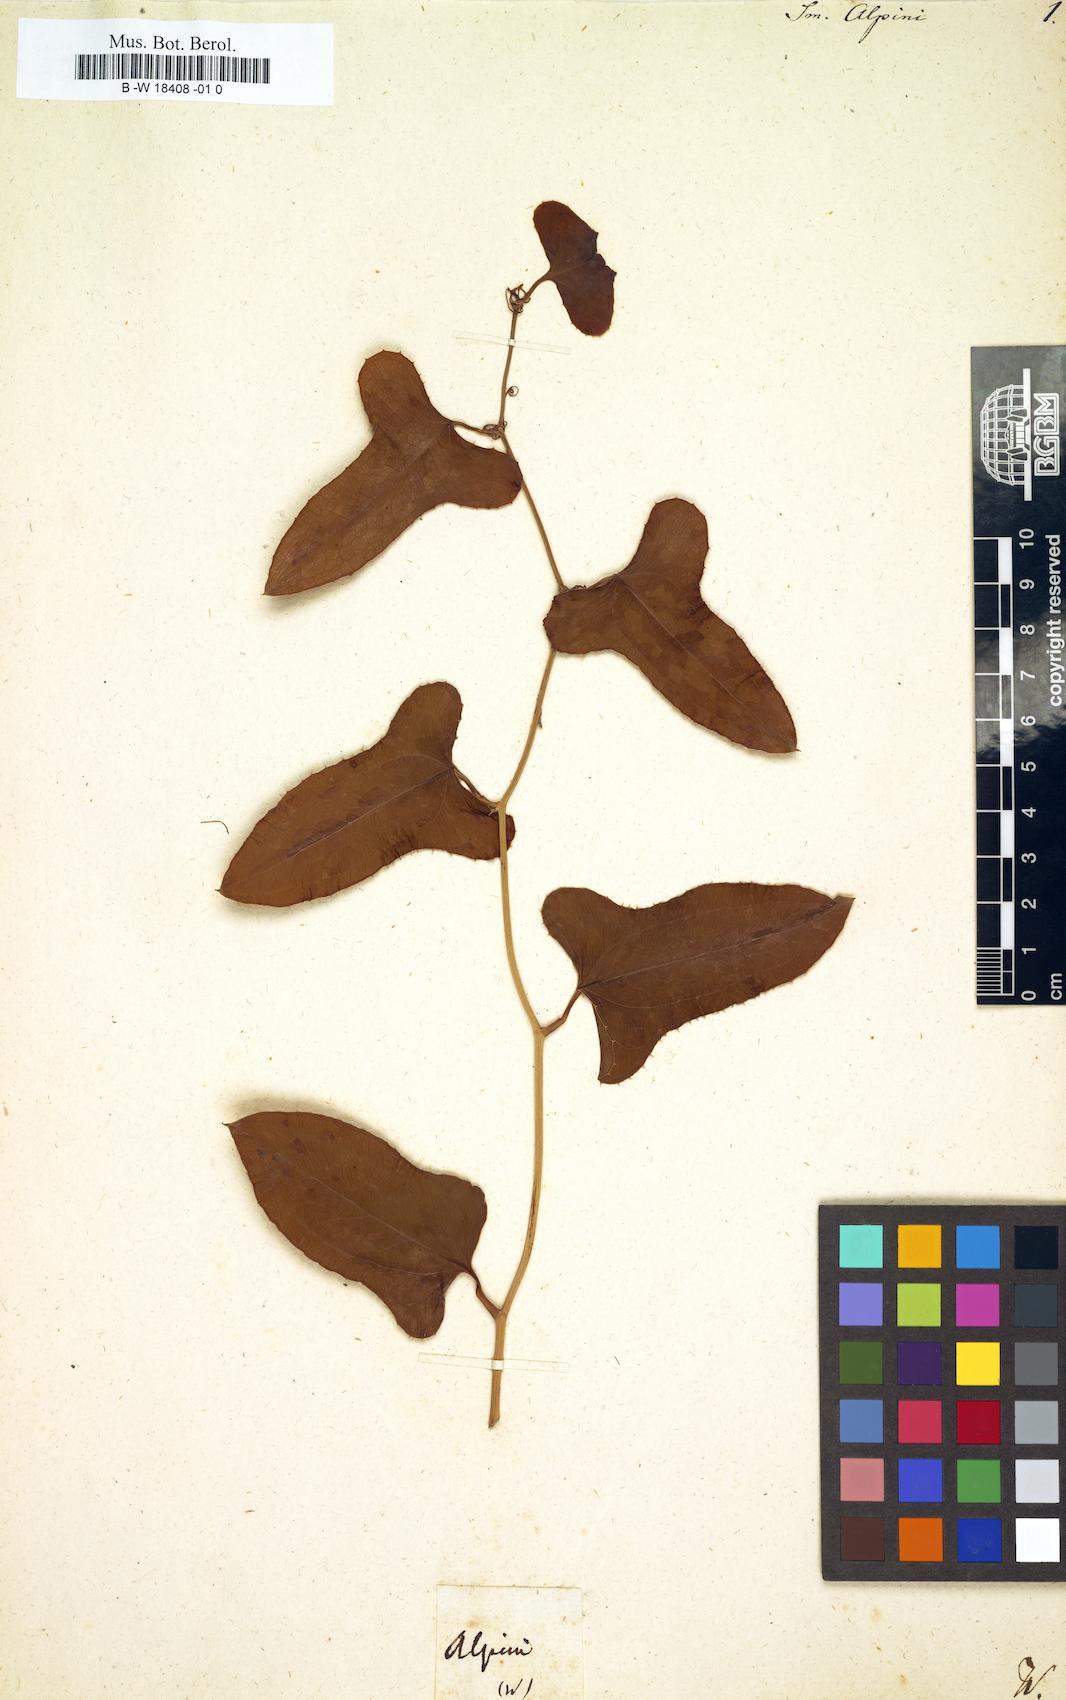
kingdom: Plantae
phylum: Tracheophyta
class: Liliopsida
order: Liliales
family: Smilacaceae
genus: Smilax
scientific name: Smilax bona-nox
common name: Catbrier
